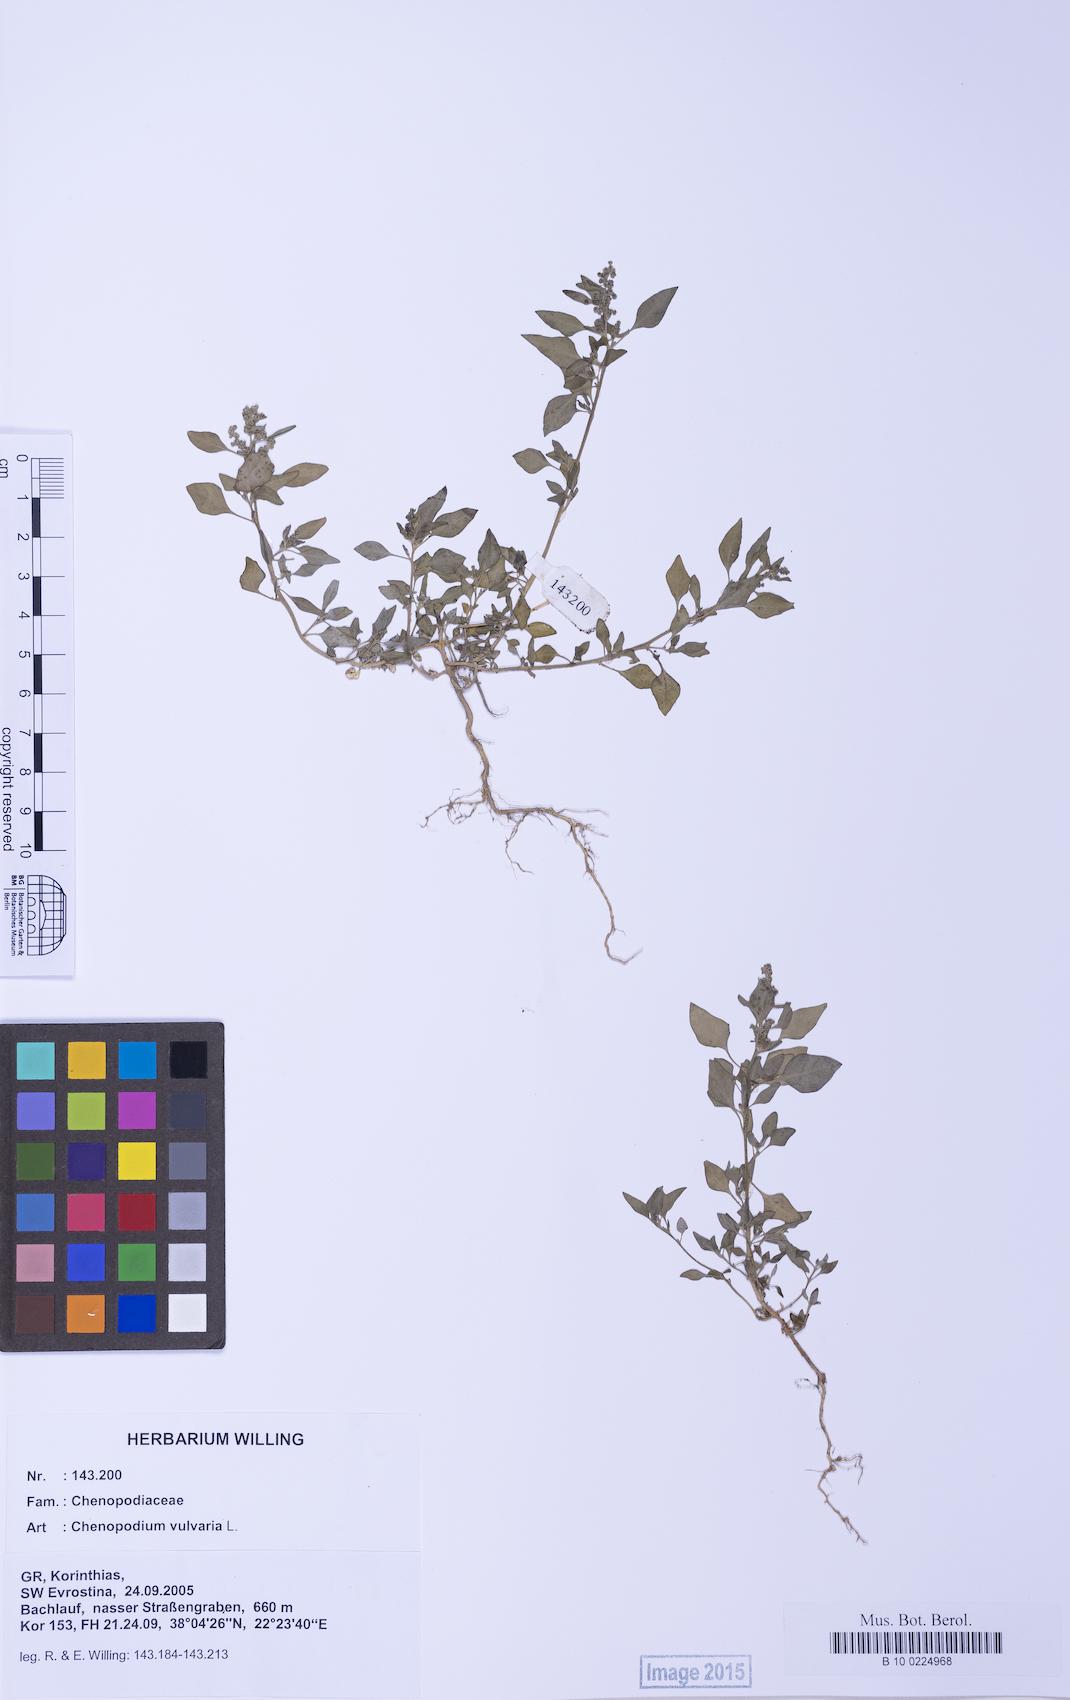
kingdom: Plantae
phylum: Tracheophyta
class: Magnoliopsida
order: Caryophyllales
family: Amaranthaceae
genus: Chenopodium
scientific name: Chenopodium vulvaria
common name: Stinking goosefoot
